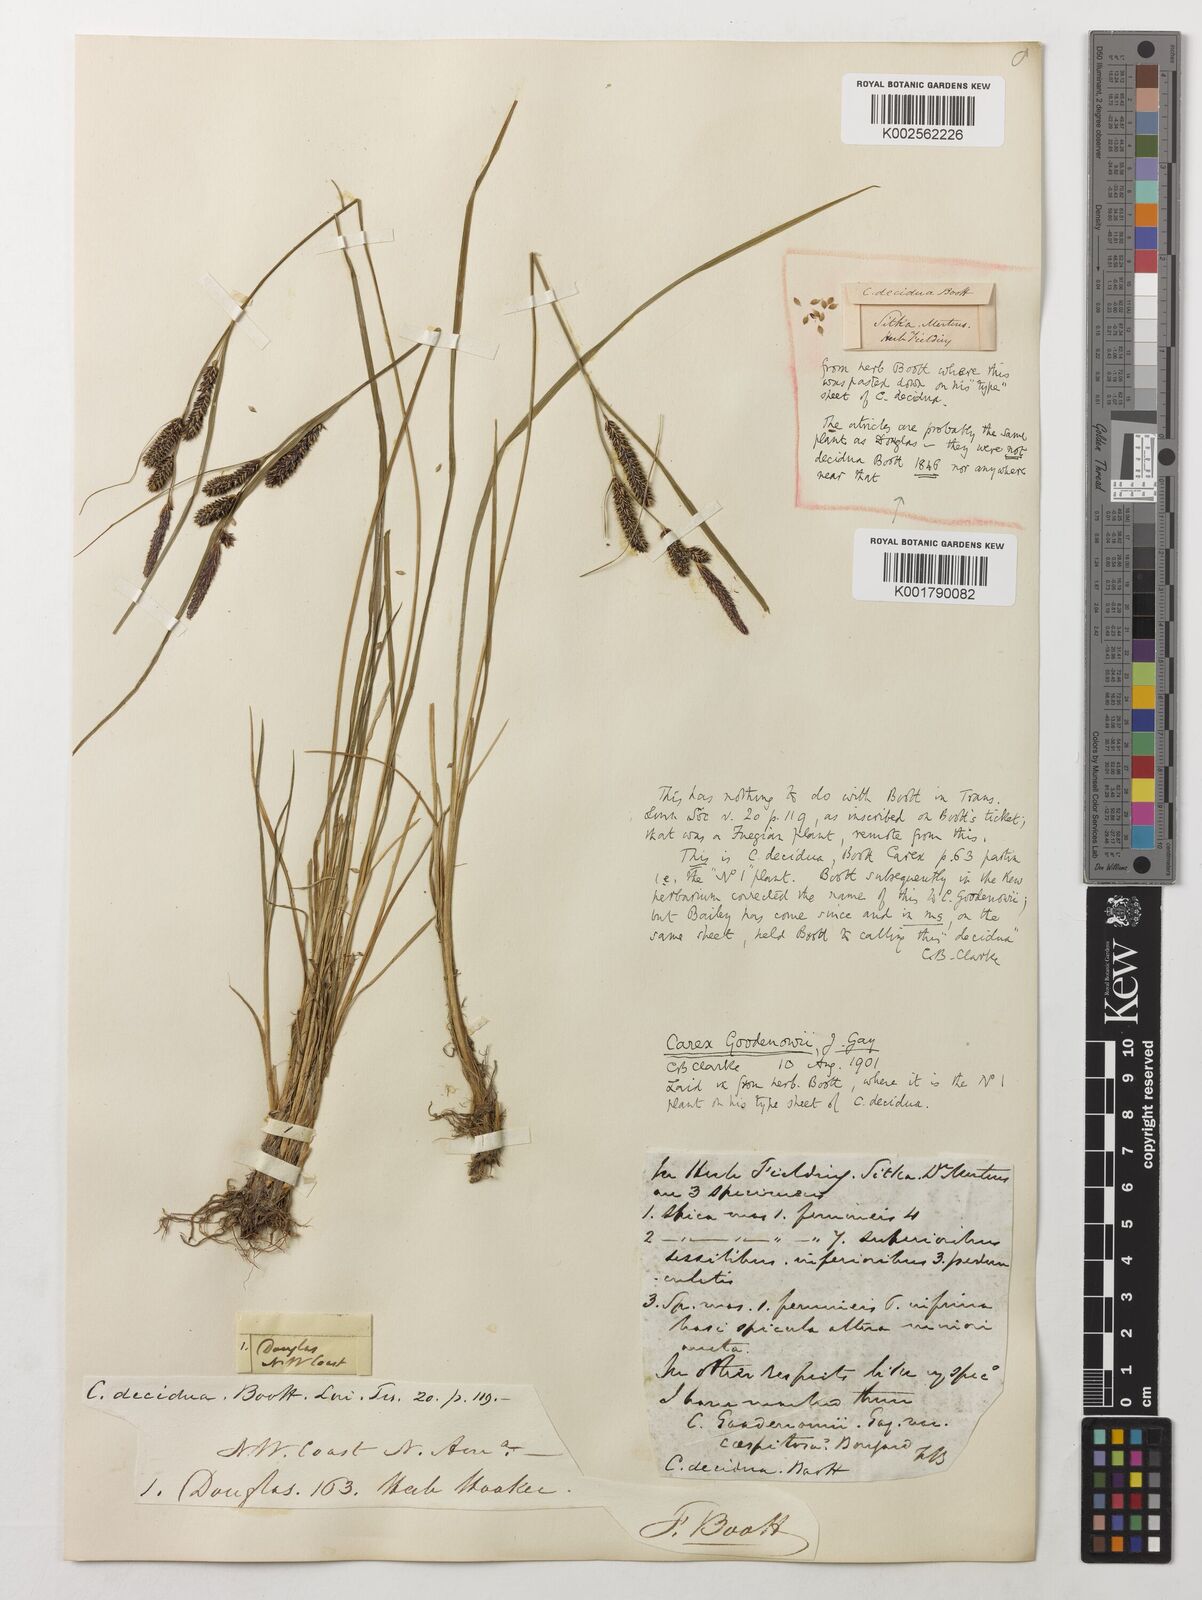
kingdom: Plantae
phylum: Tracheophyta
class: Liliopsida
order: Poales
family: Cyperaceae
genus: Carex
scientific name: Carex nigra
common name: Common sedge
